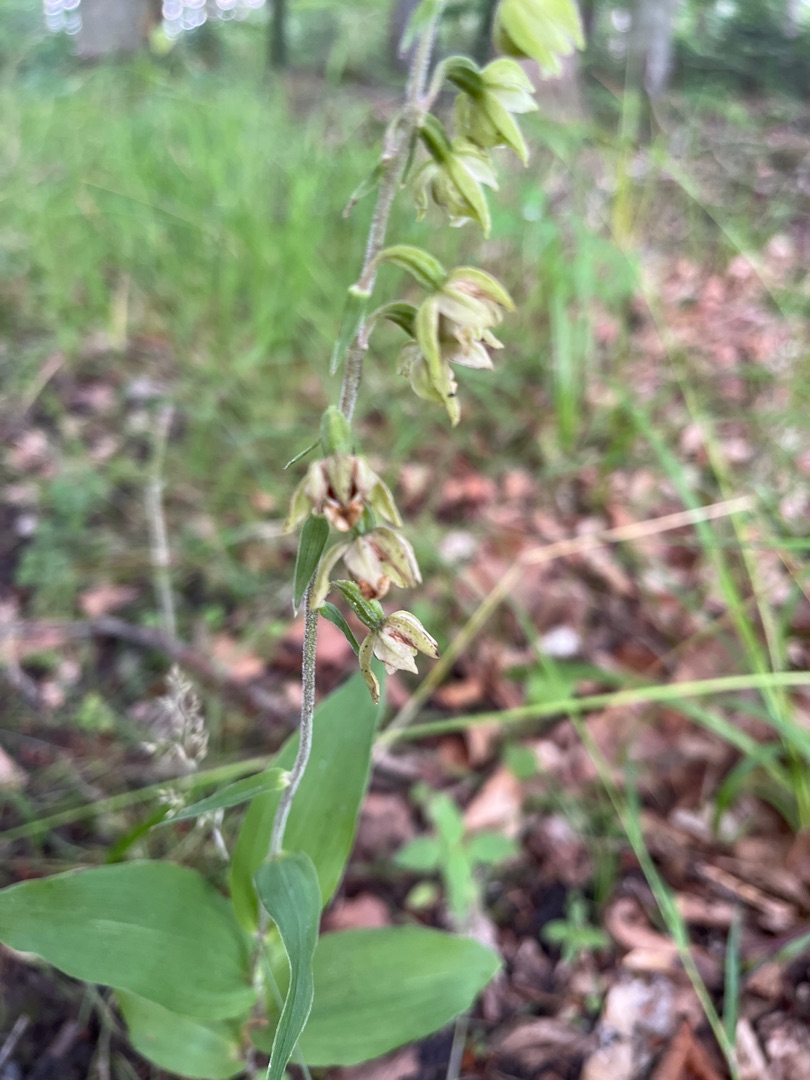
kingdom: Plantae
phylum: Tracheophyta
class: Liliopsida
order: Asparagales
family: Orchidaceae
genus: Epipactis
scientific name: Epipactis helleborine
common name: Skov-hullæbe
